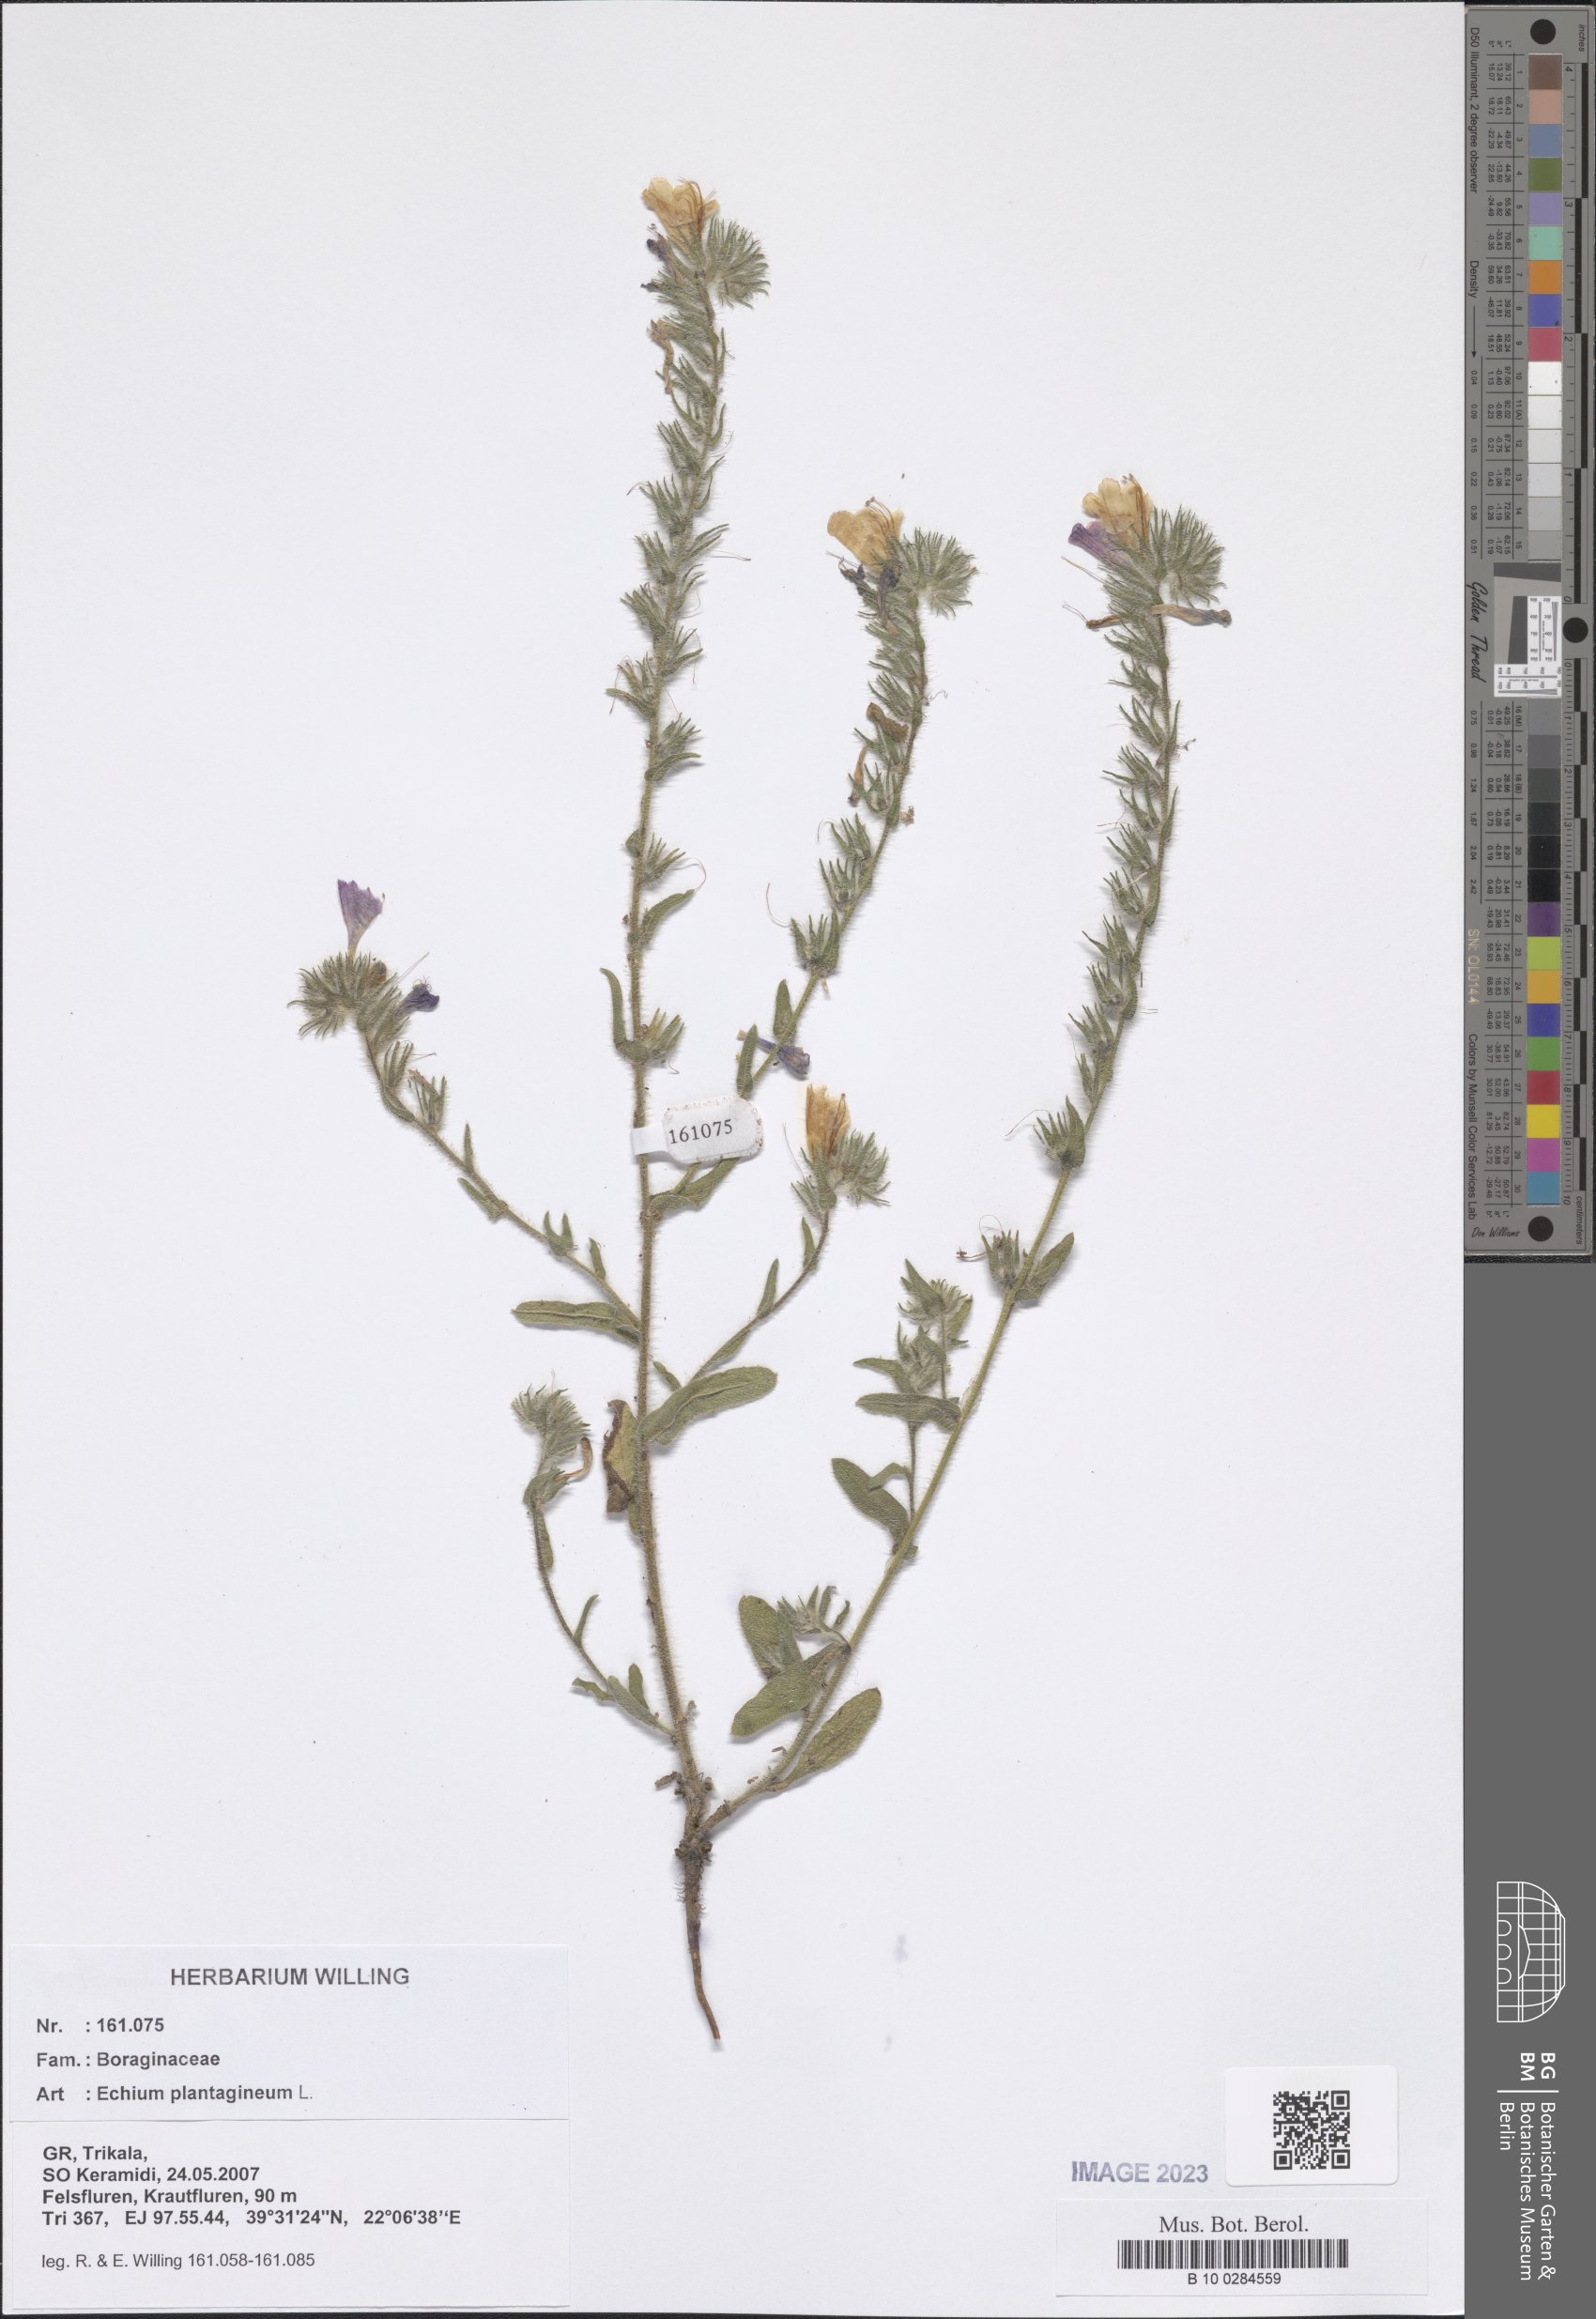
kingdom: Plantae
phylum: Tracheophyta
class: Magnoliopsida
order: Boraginales
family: Boraginaceae
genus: Echium
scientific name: Echium plantagineum
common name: Purple viper's-bugloss
